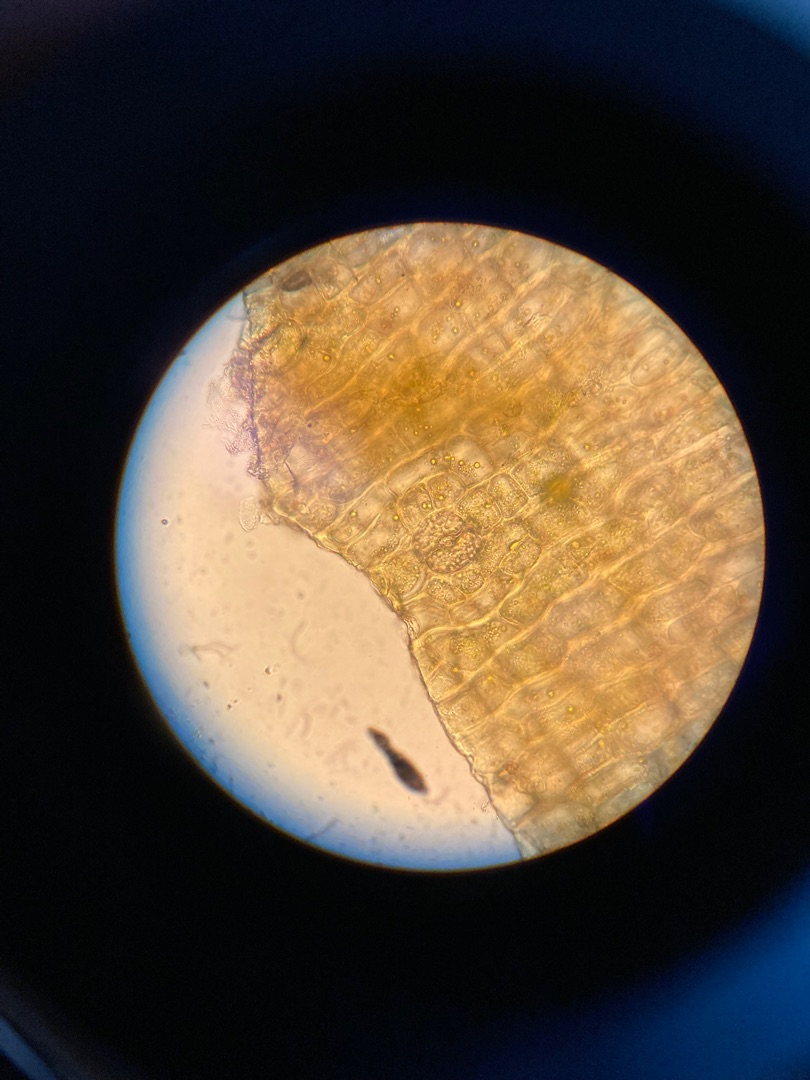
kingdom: Plantae
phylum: Bryophyta
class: Bryopsida
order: Orthotrichales
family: Orthotrichaceae
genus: Ulota
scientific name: Ulota
